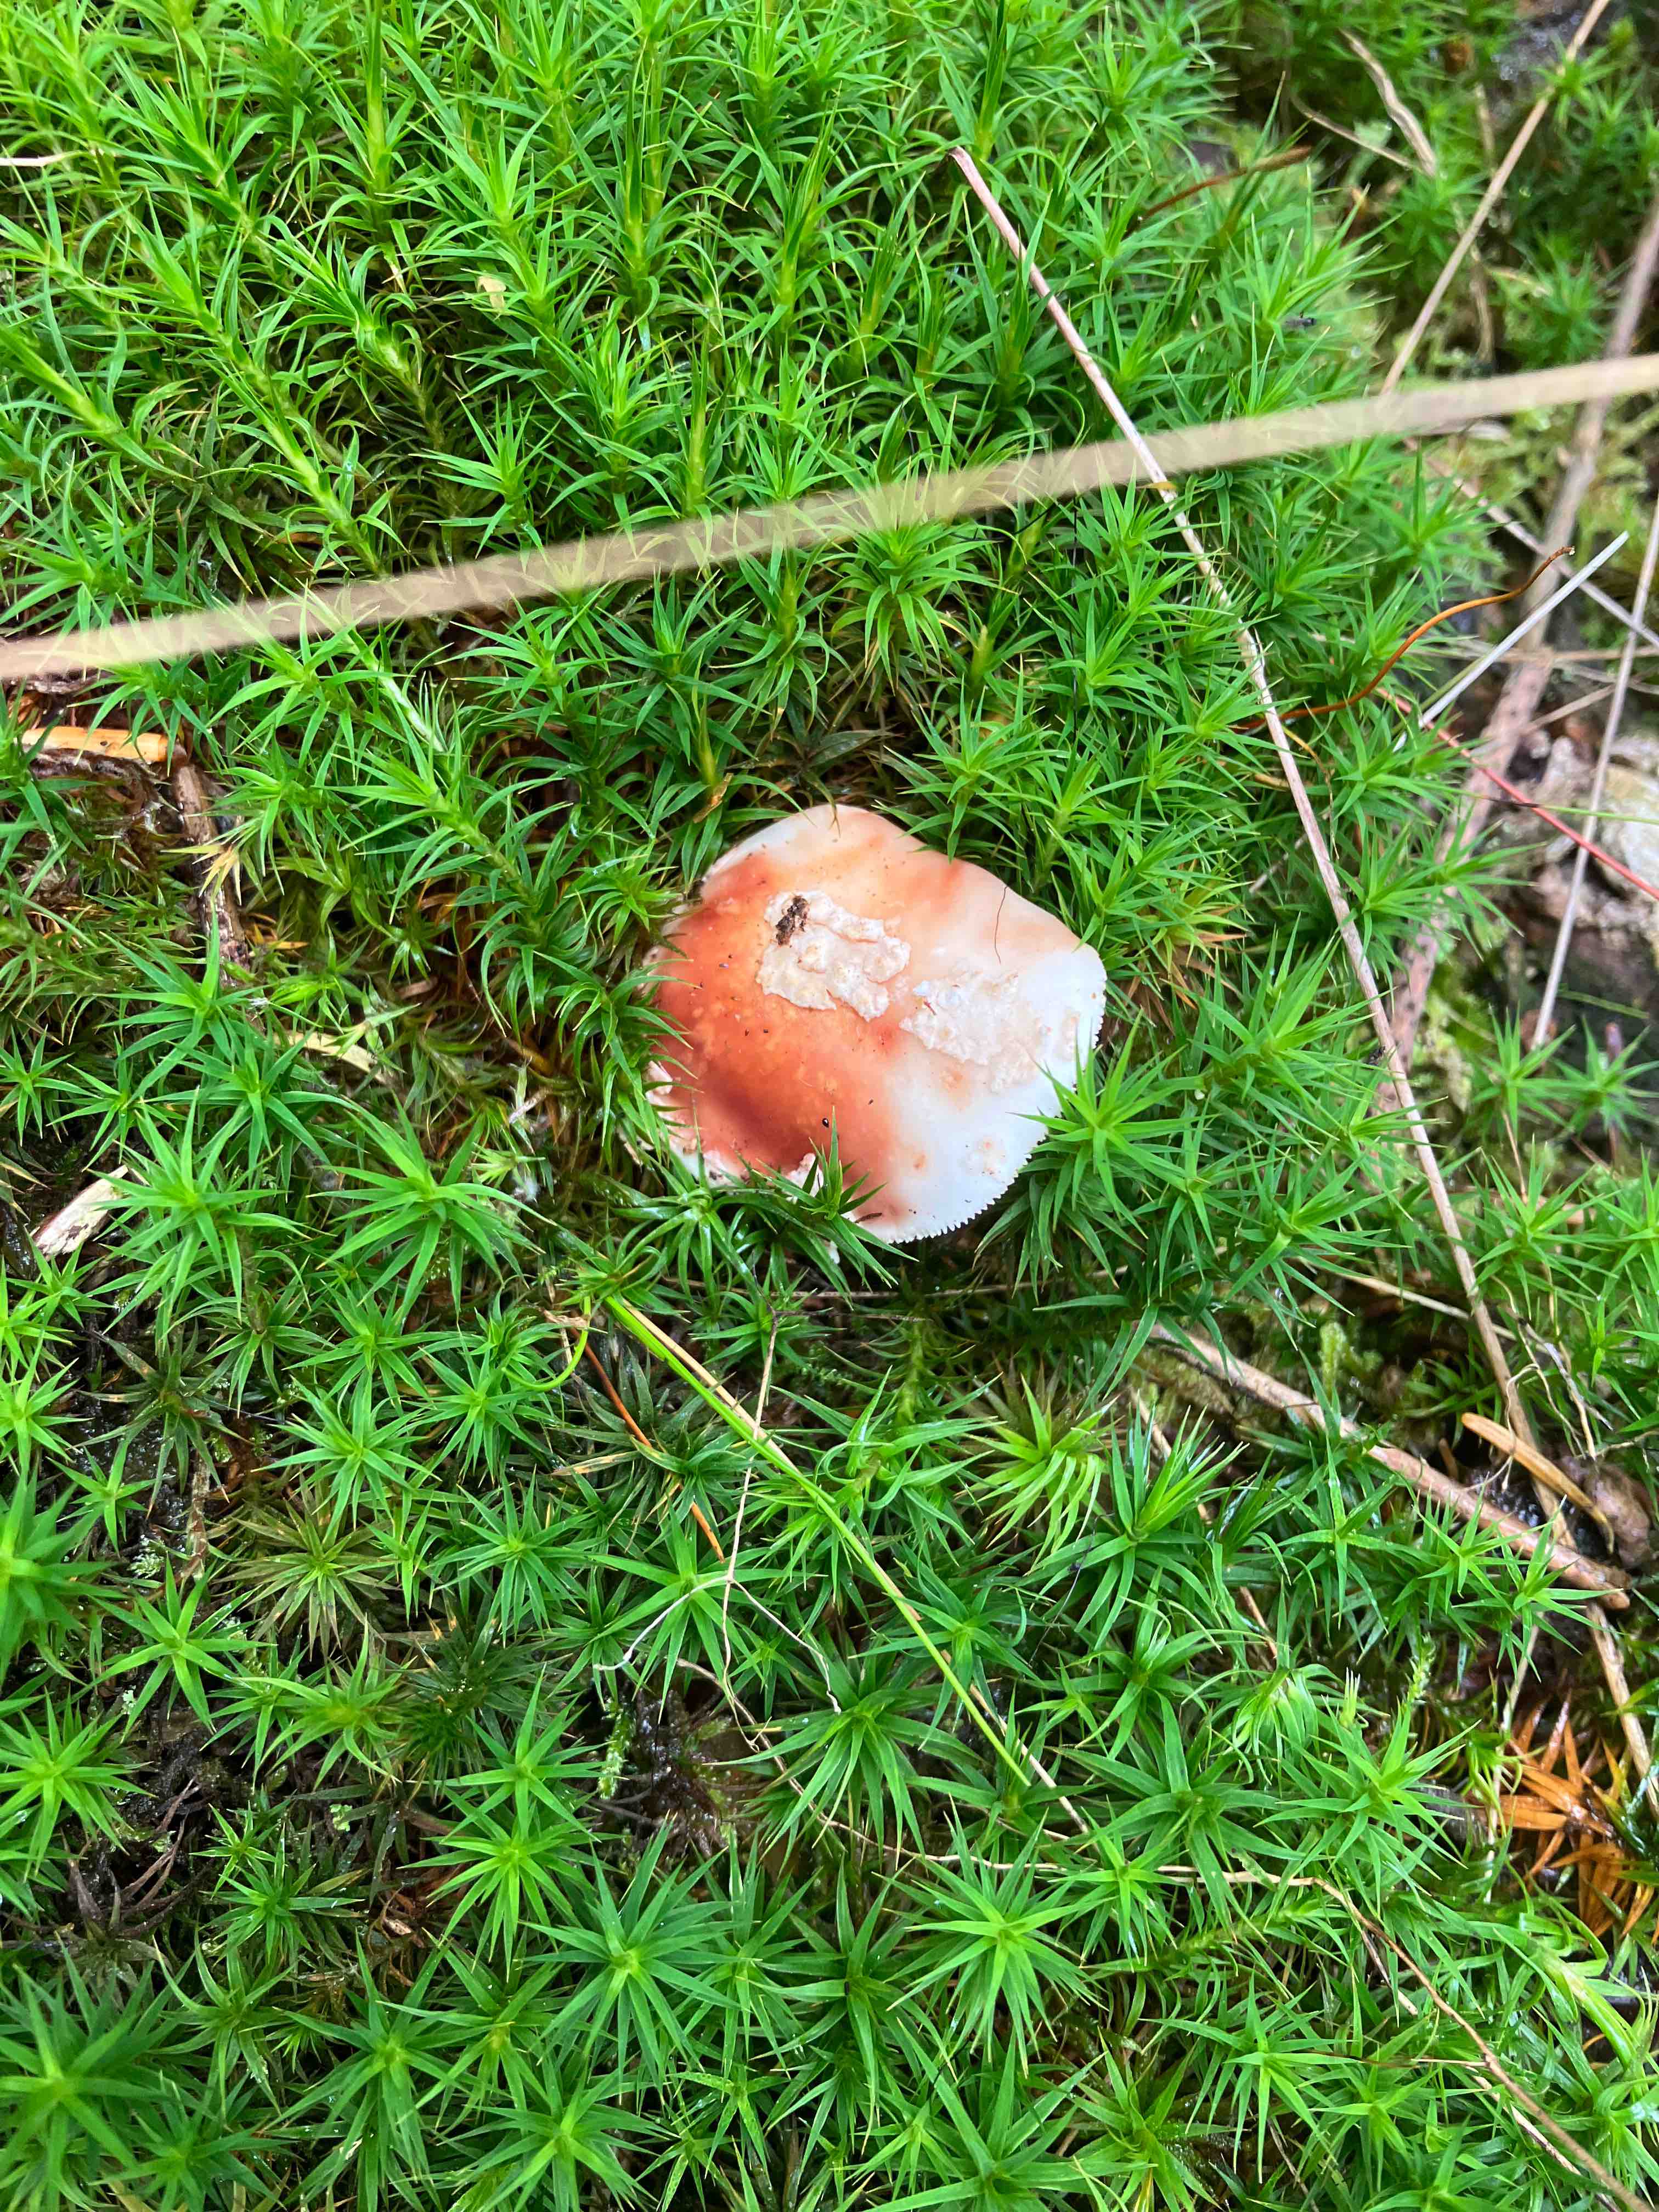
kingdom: Fungi
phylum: Basidiomycota
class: Agaricomycetes
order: Agaricales
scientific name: Agaricales
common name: champignonordenen
